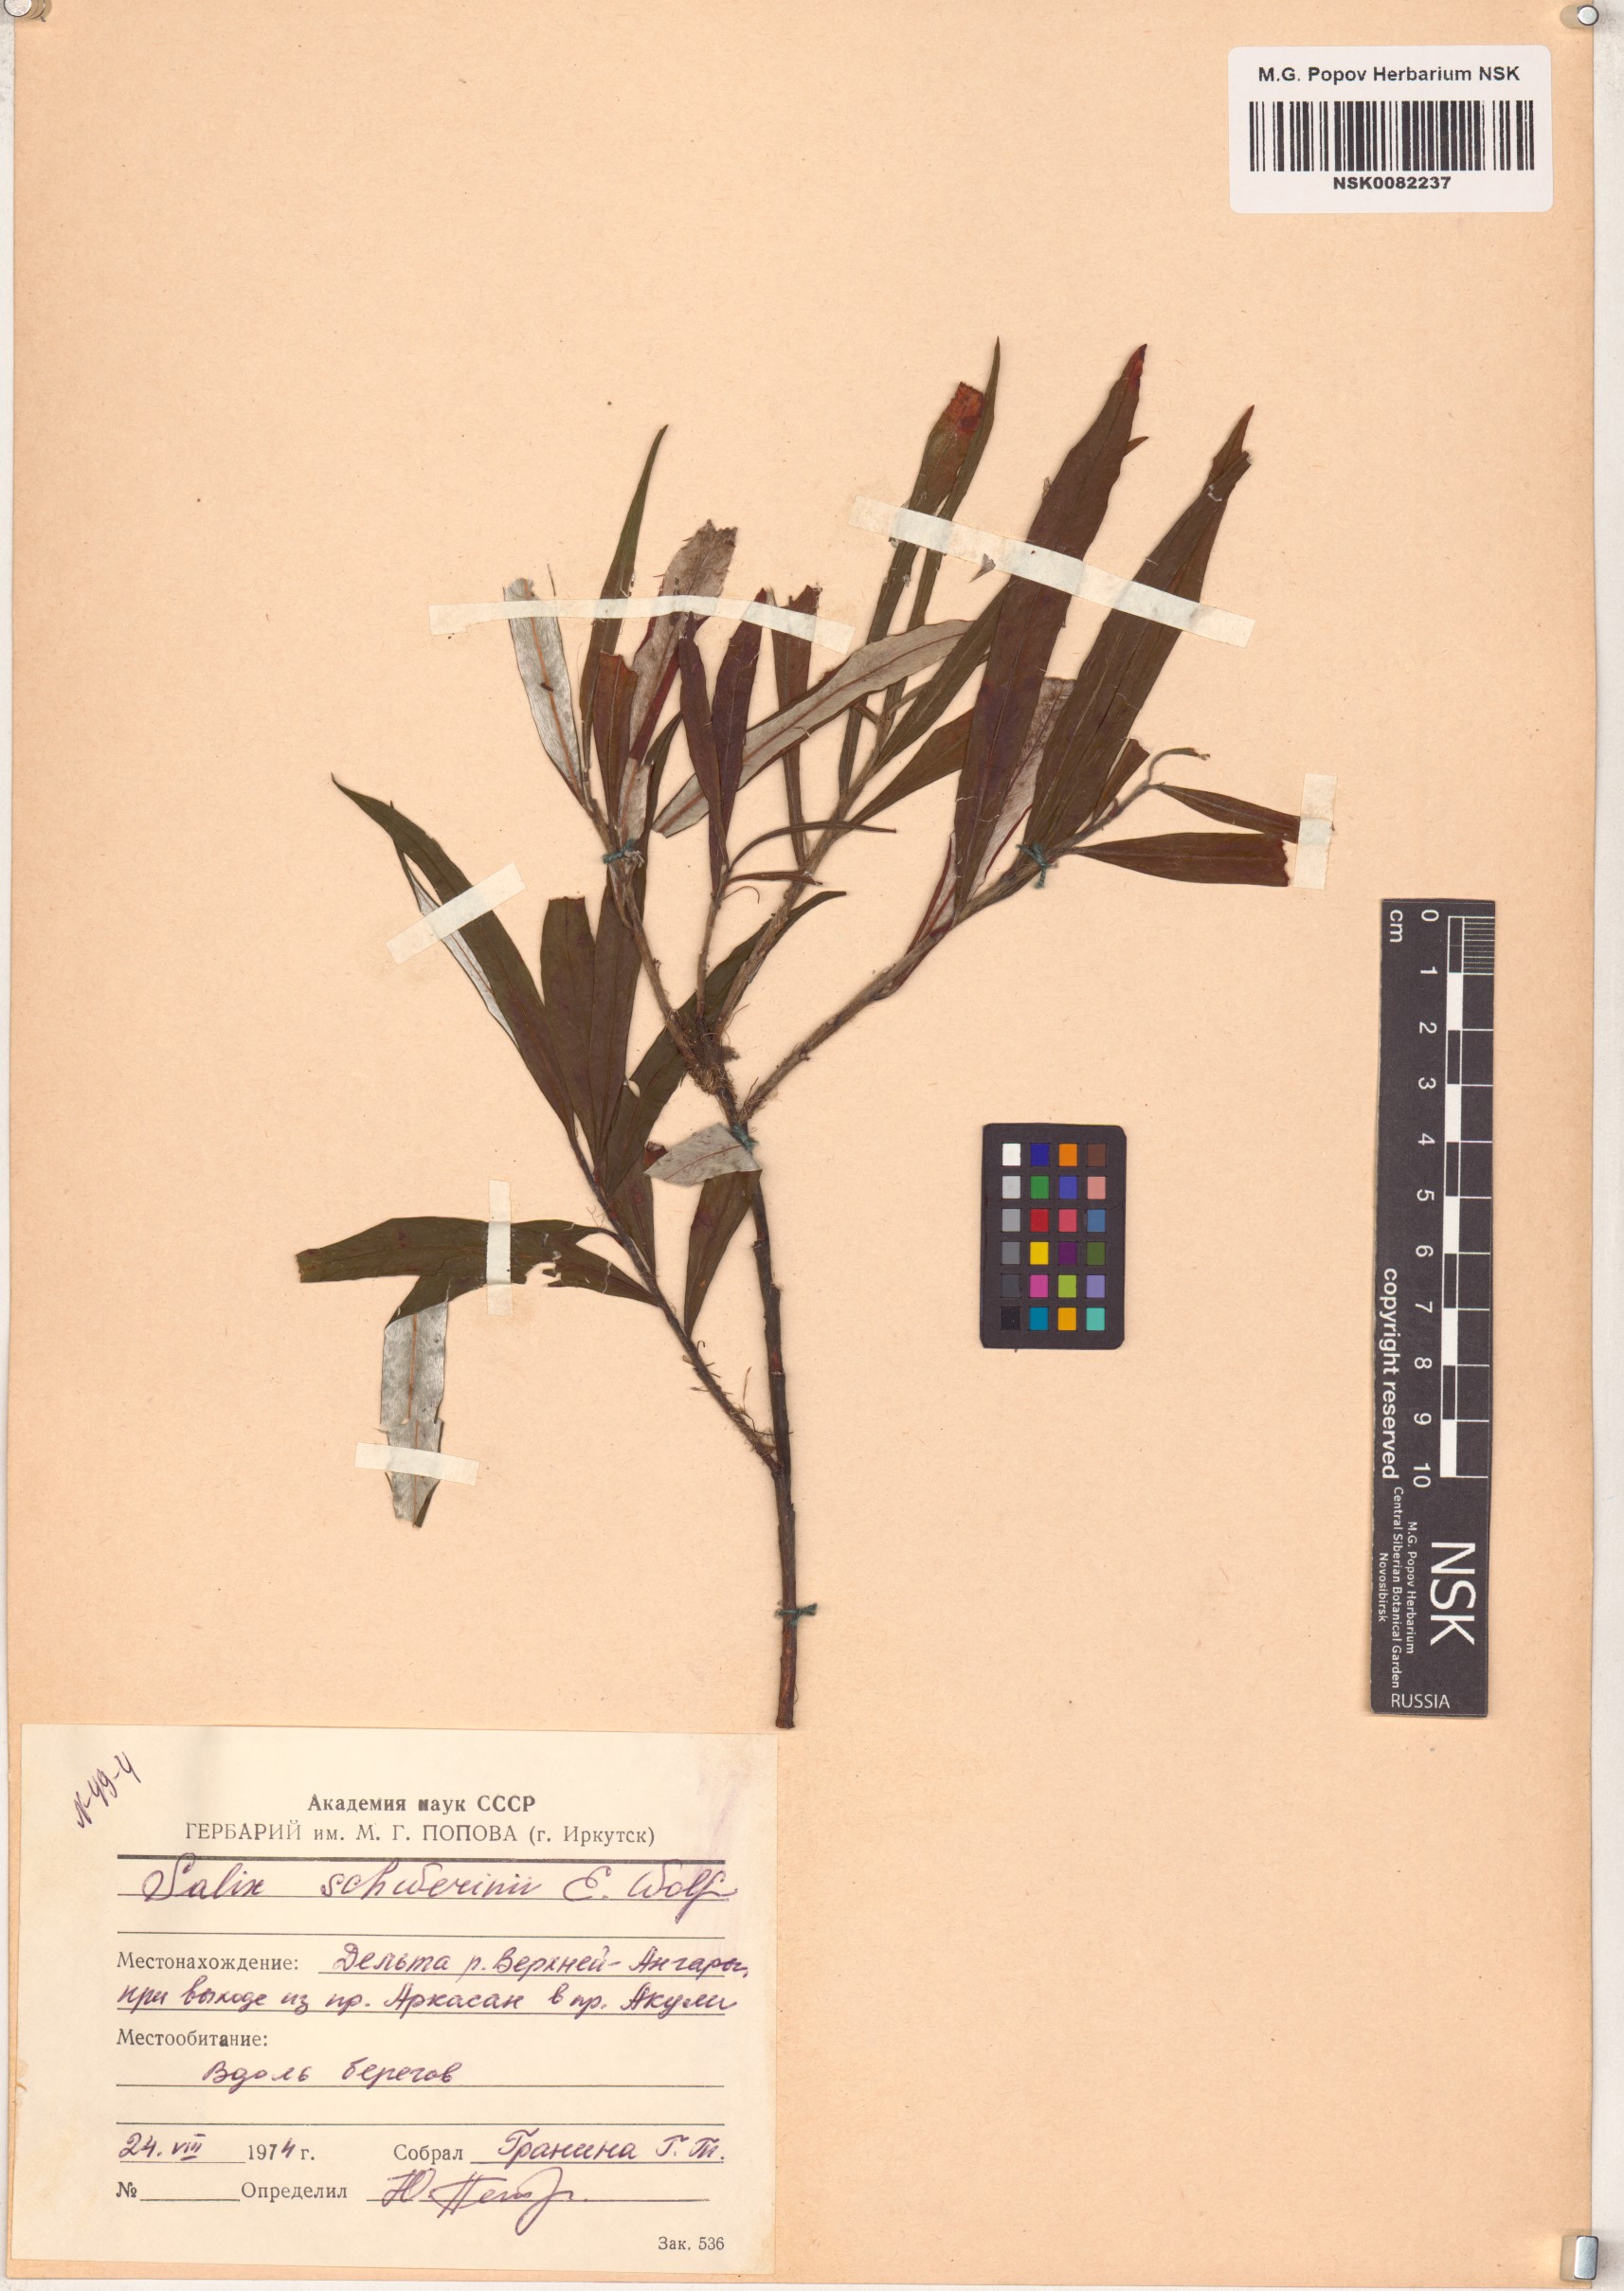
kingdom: Plantae
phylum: Tracheophyta
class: Magnoliopsida
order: Malpighiales
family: Salicaceae
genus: Salix
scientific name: Salix schwerinii
